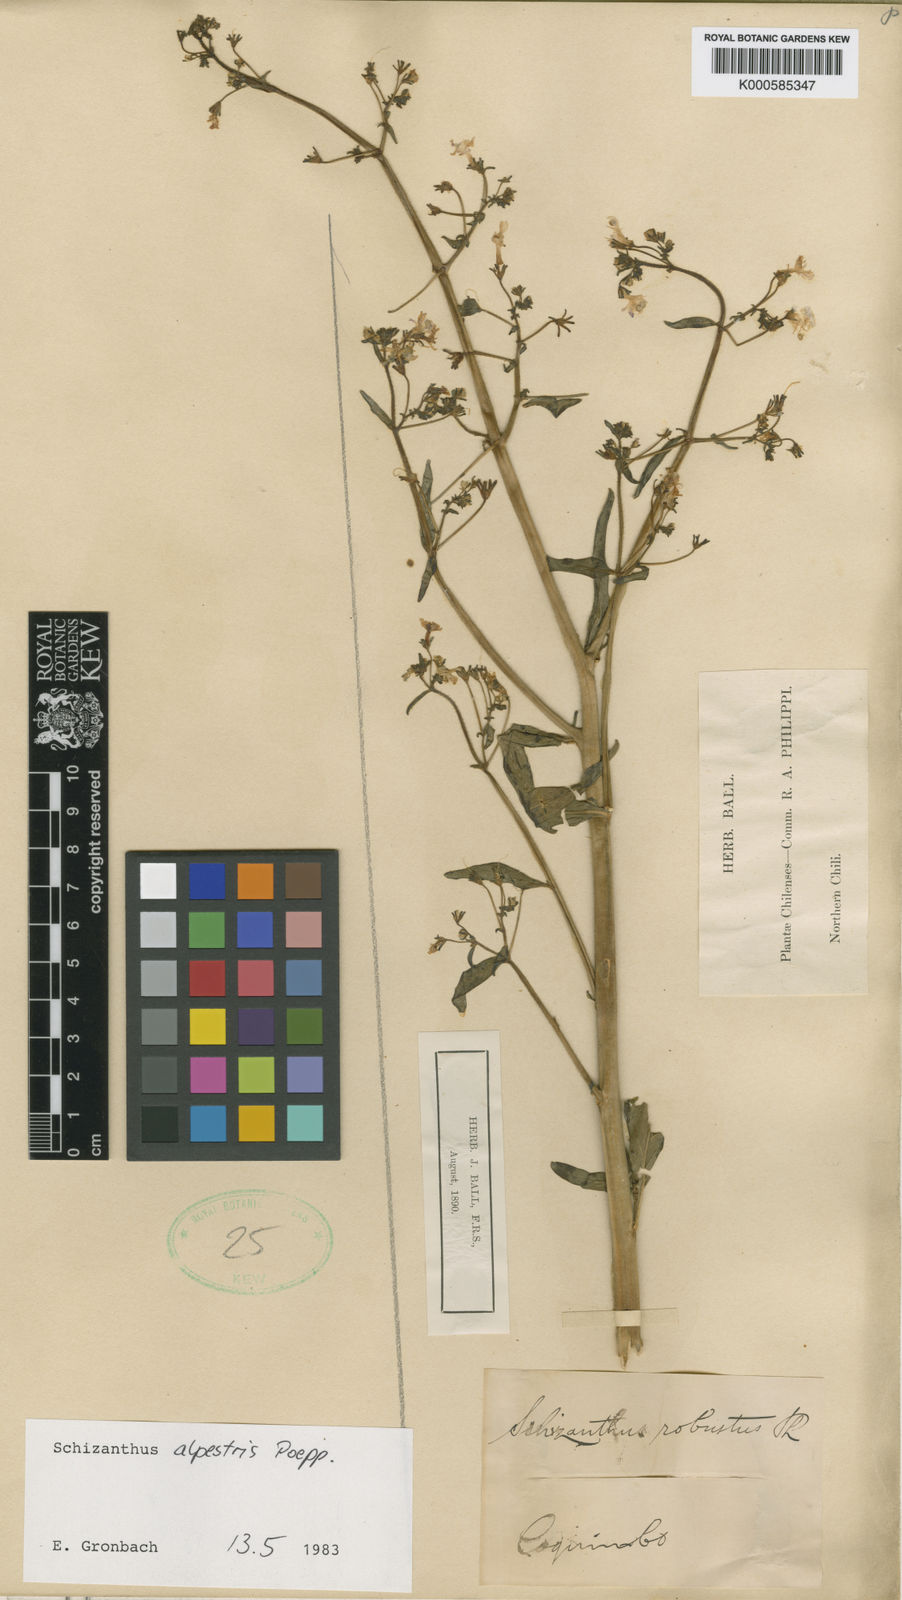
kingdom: Plantae
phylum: Tracheophyta
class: Magnoliopsida
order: Solanales
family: Solanaceae
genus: Schizanthus
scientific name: Schizanthus alpestris
